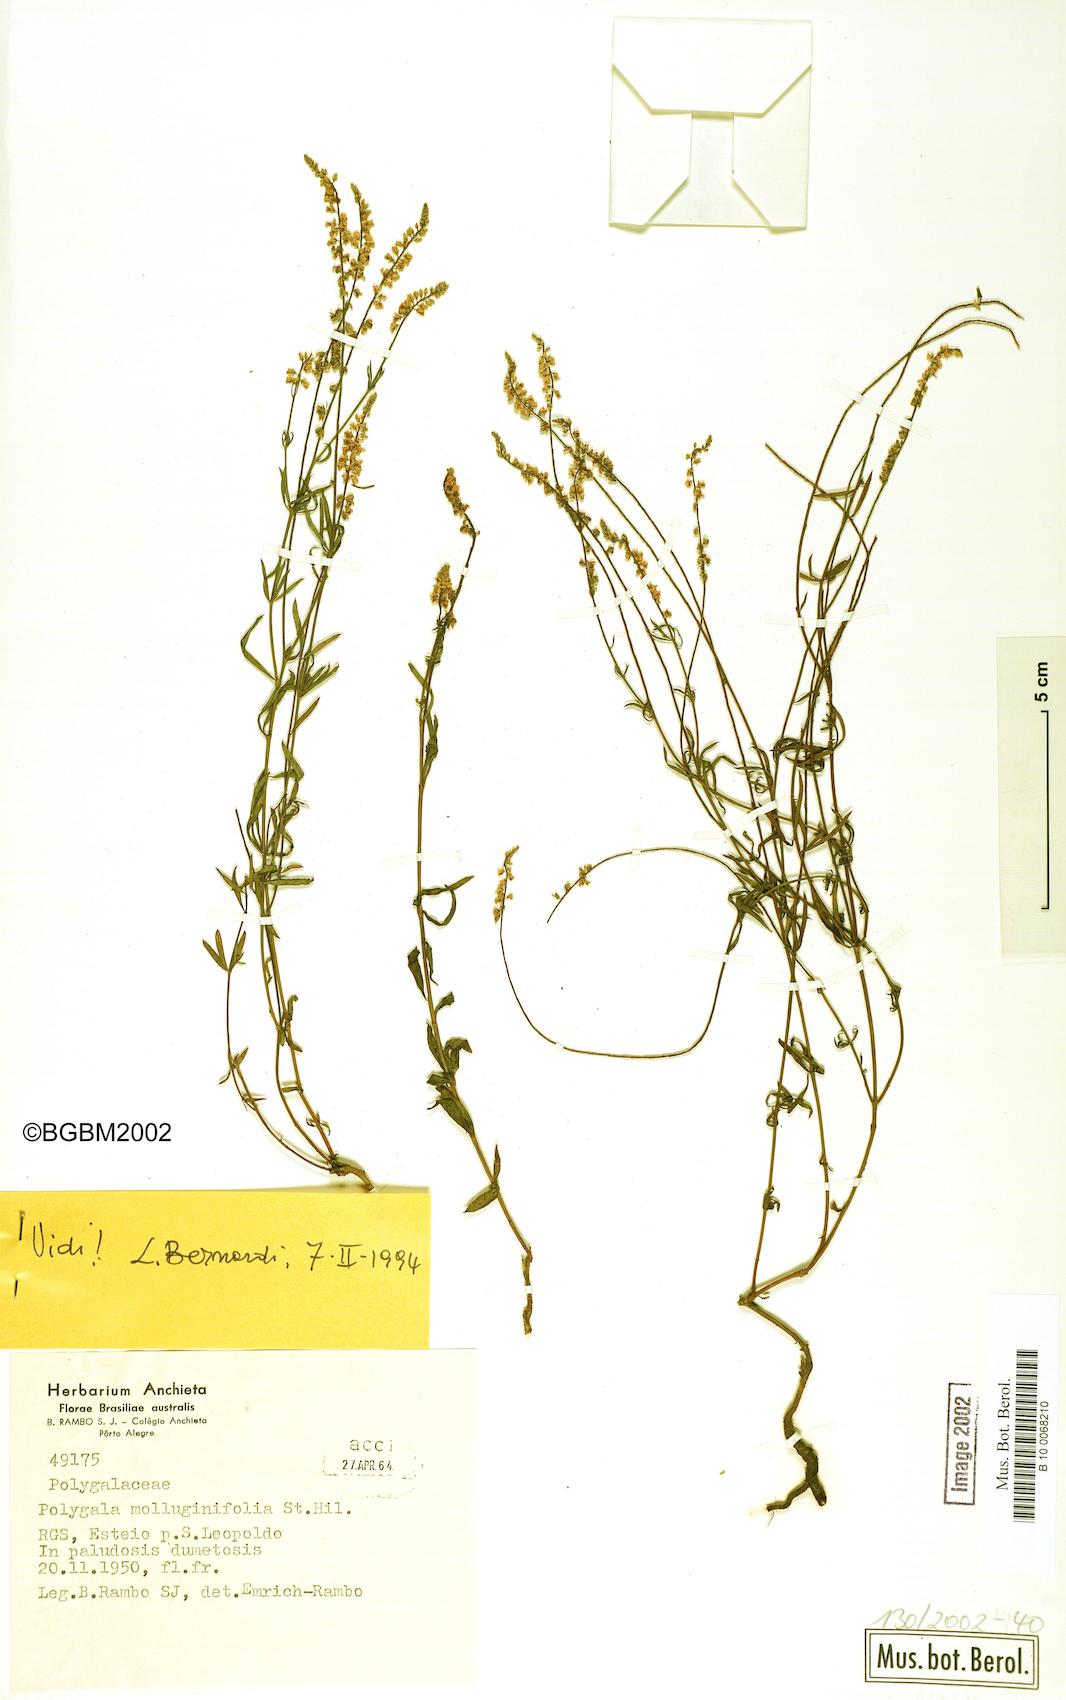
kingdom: Plantae
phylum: Tracheophyta
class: Magnoliopsida
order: Fabales
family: Polygalaceae
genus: Polygala
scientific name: Polygala molluginifolia
